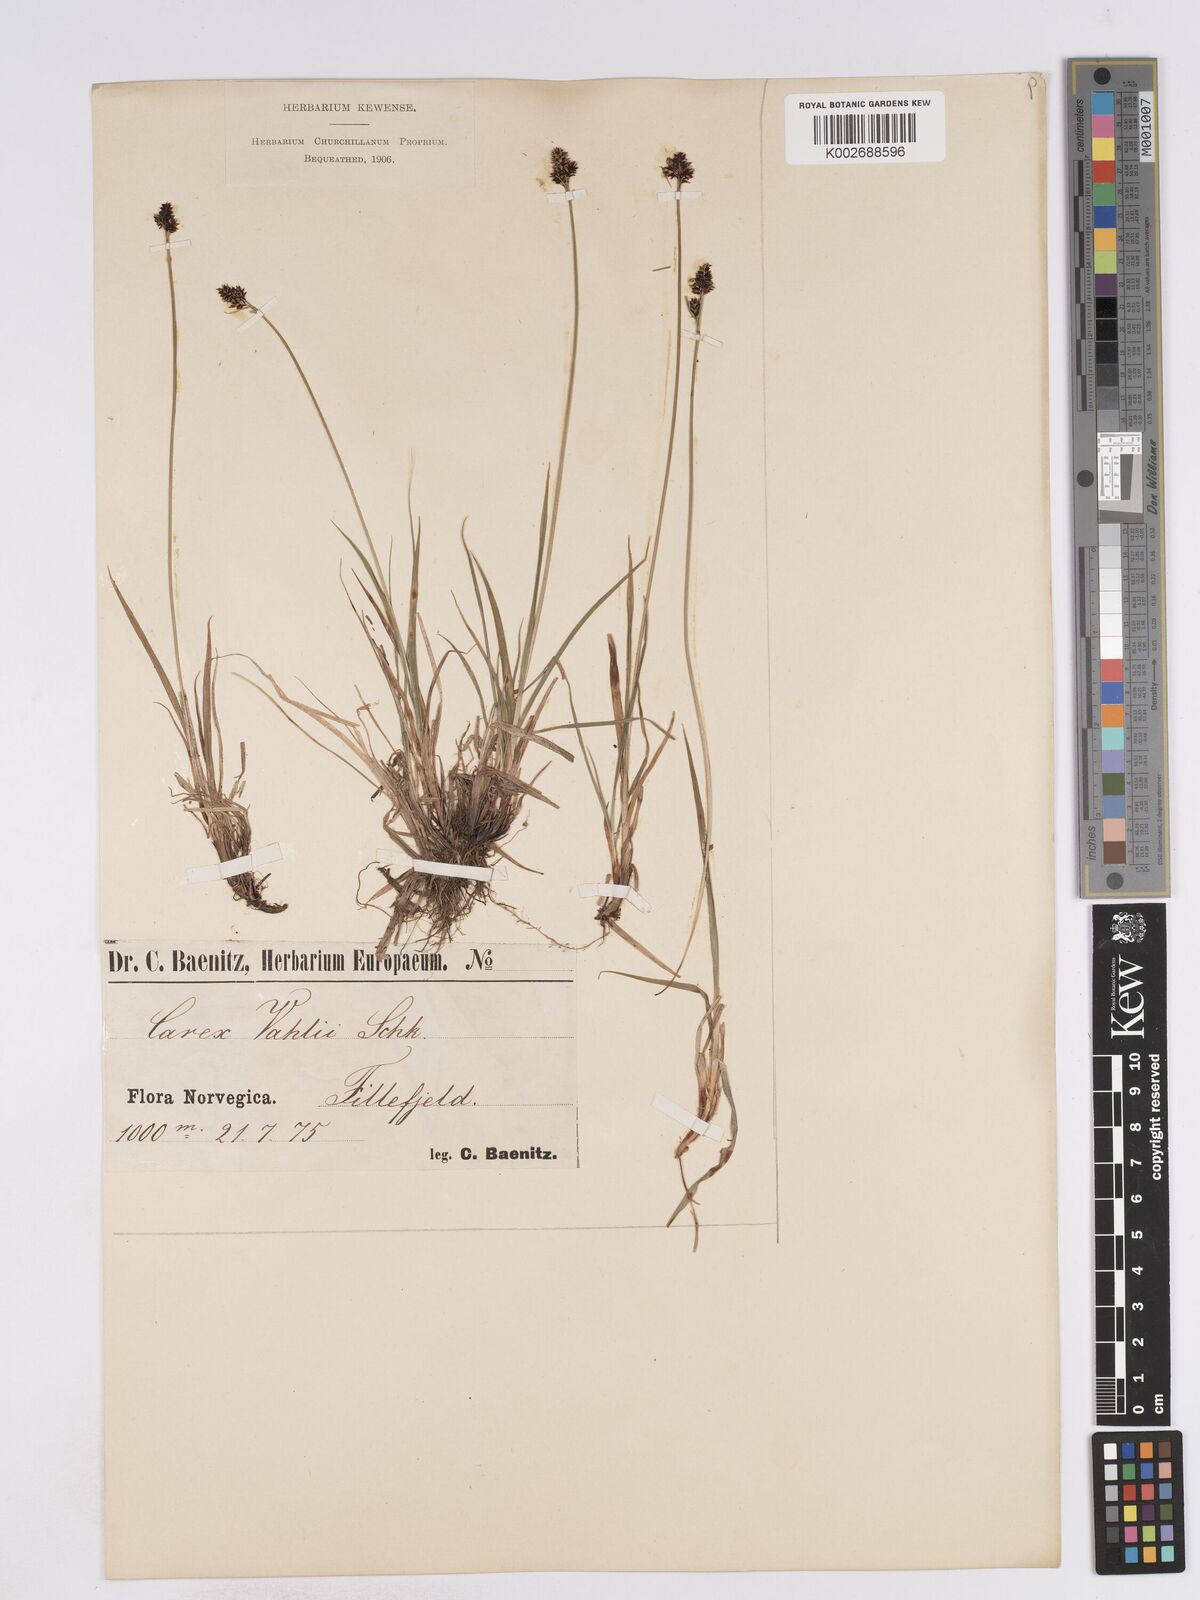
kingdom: Plantae
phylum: Tracheophyta
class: Liliopsida
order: Poales
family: Cyperaceae
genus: Carex
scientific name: Carex norvegica
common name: Close-headed alpine-sedge
